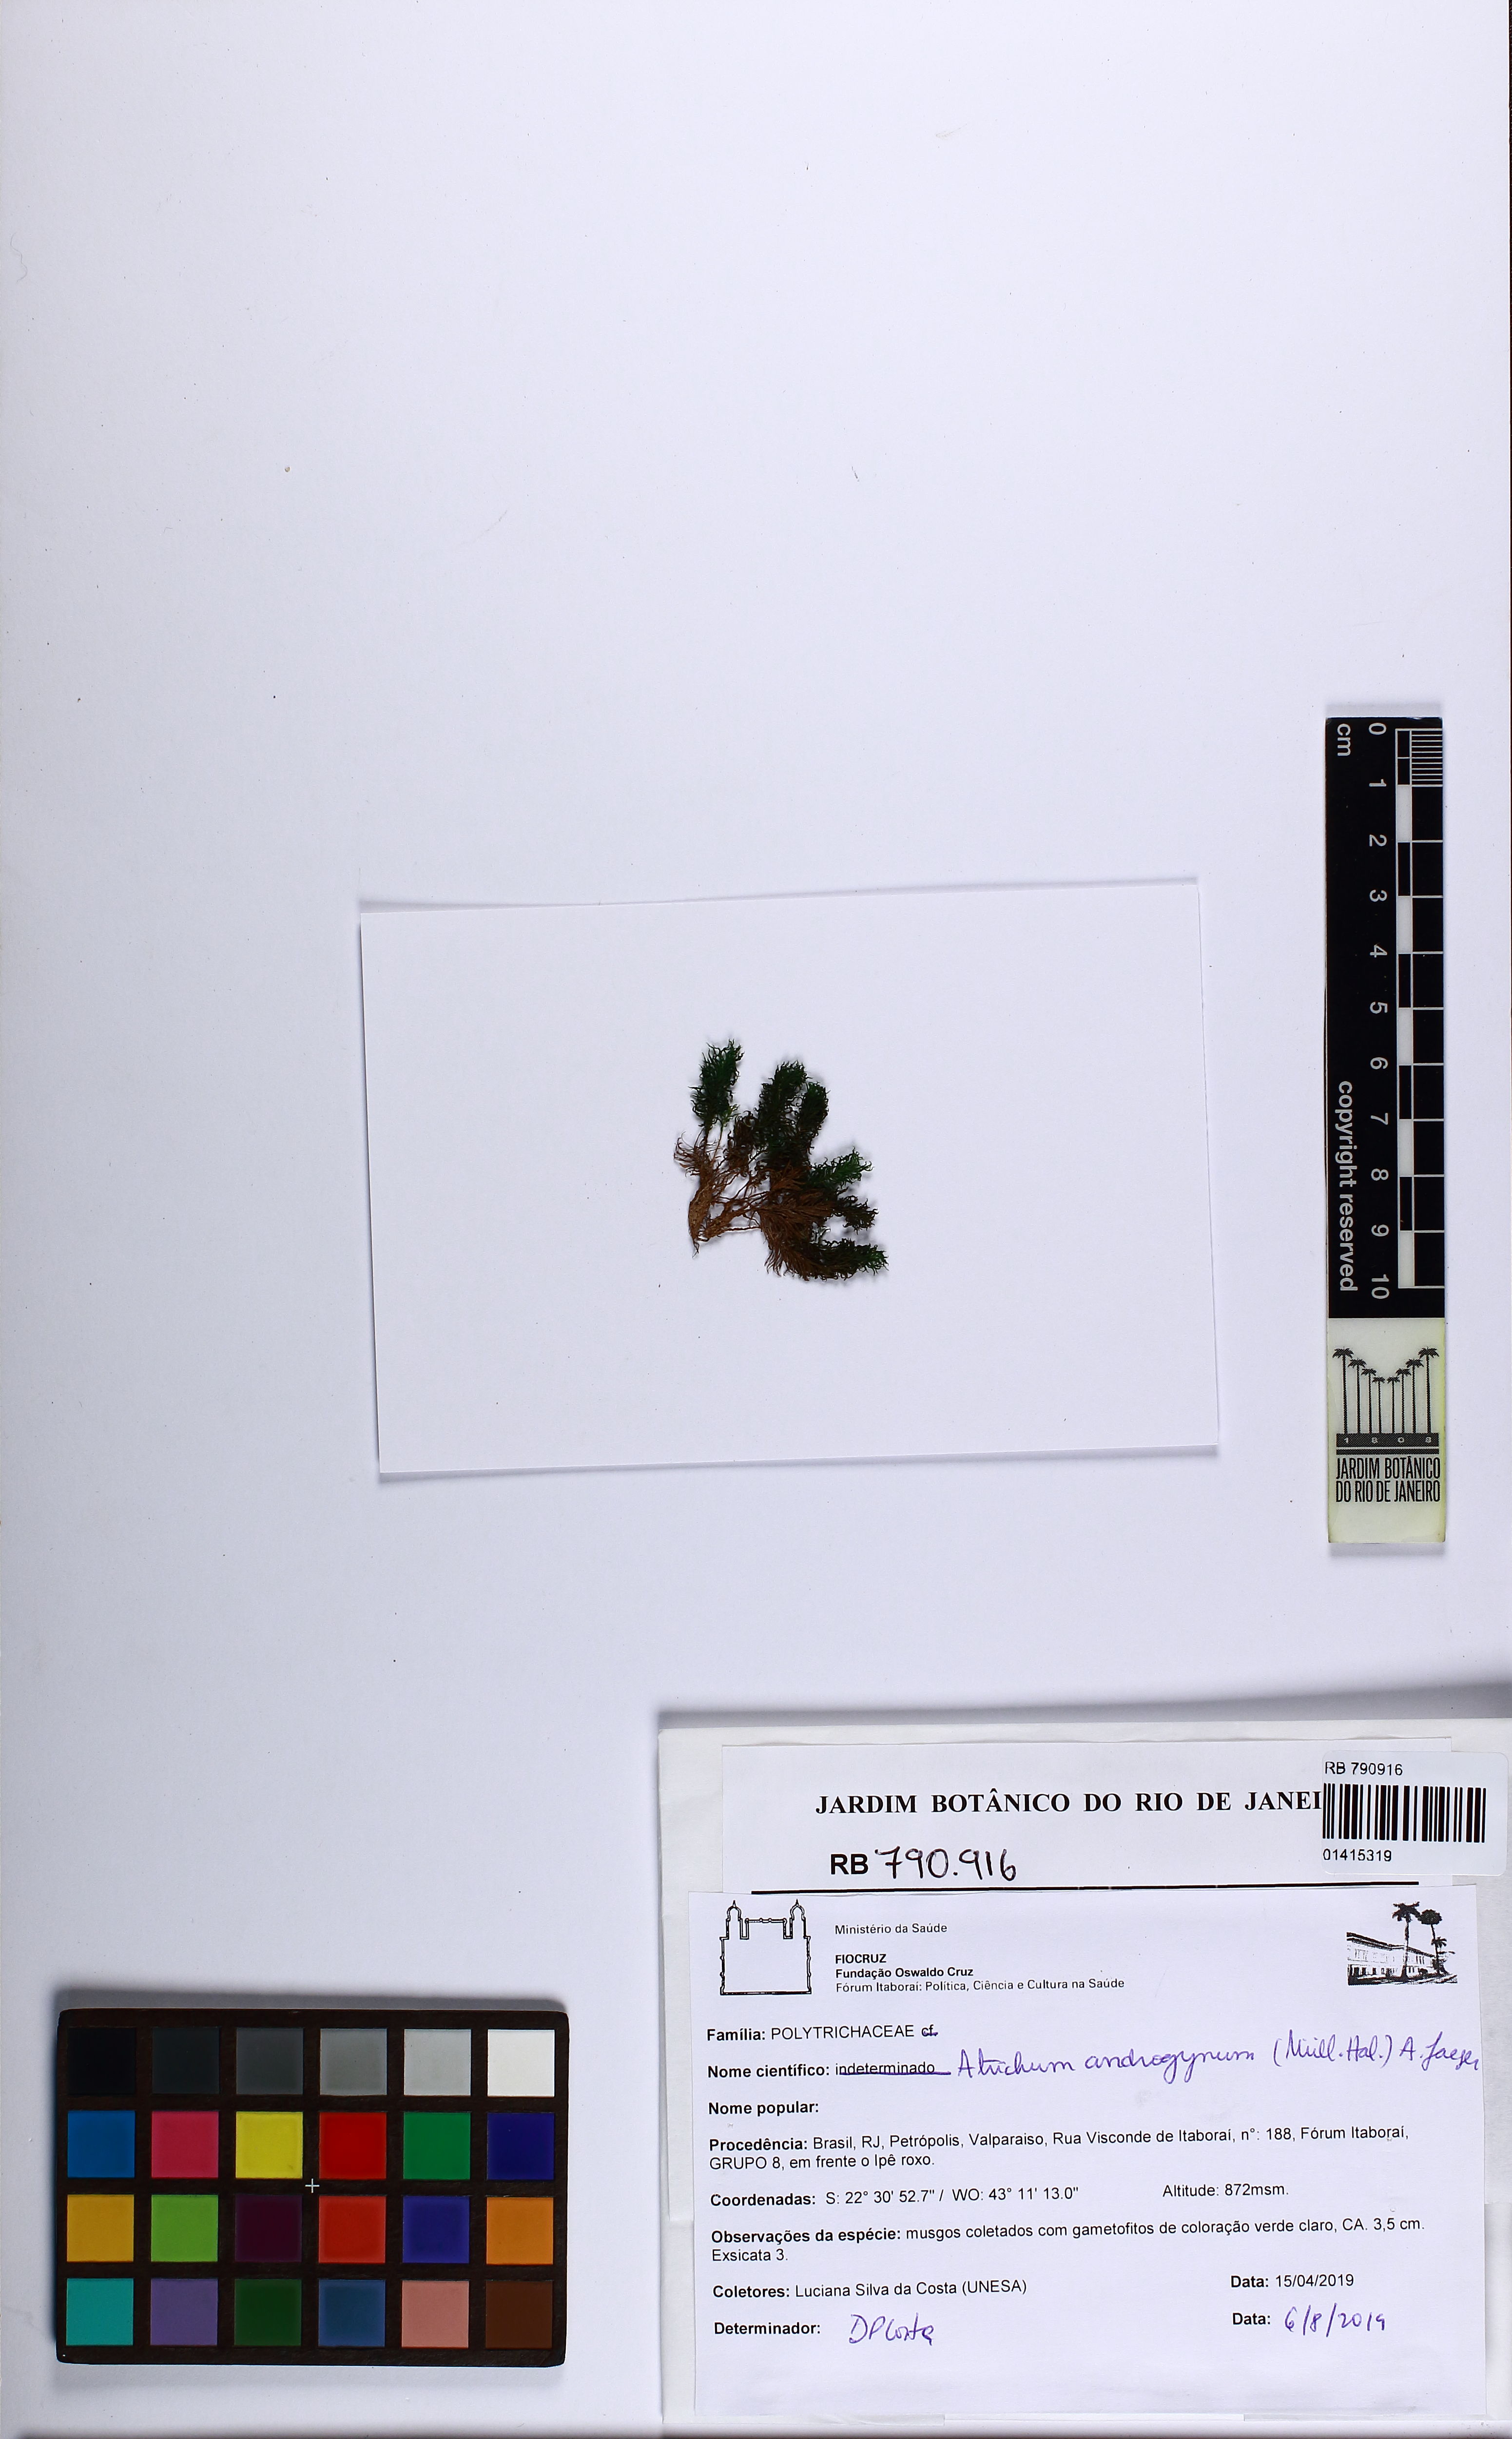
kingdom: Plantae
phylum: Bryophyta
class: Polytrichopsida
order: Polytrichales
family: Polytrichaceae
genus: Atrichum
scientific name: Atrichum androgynum
